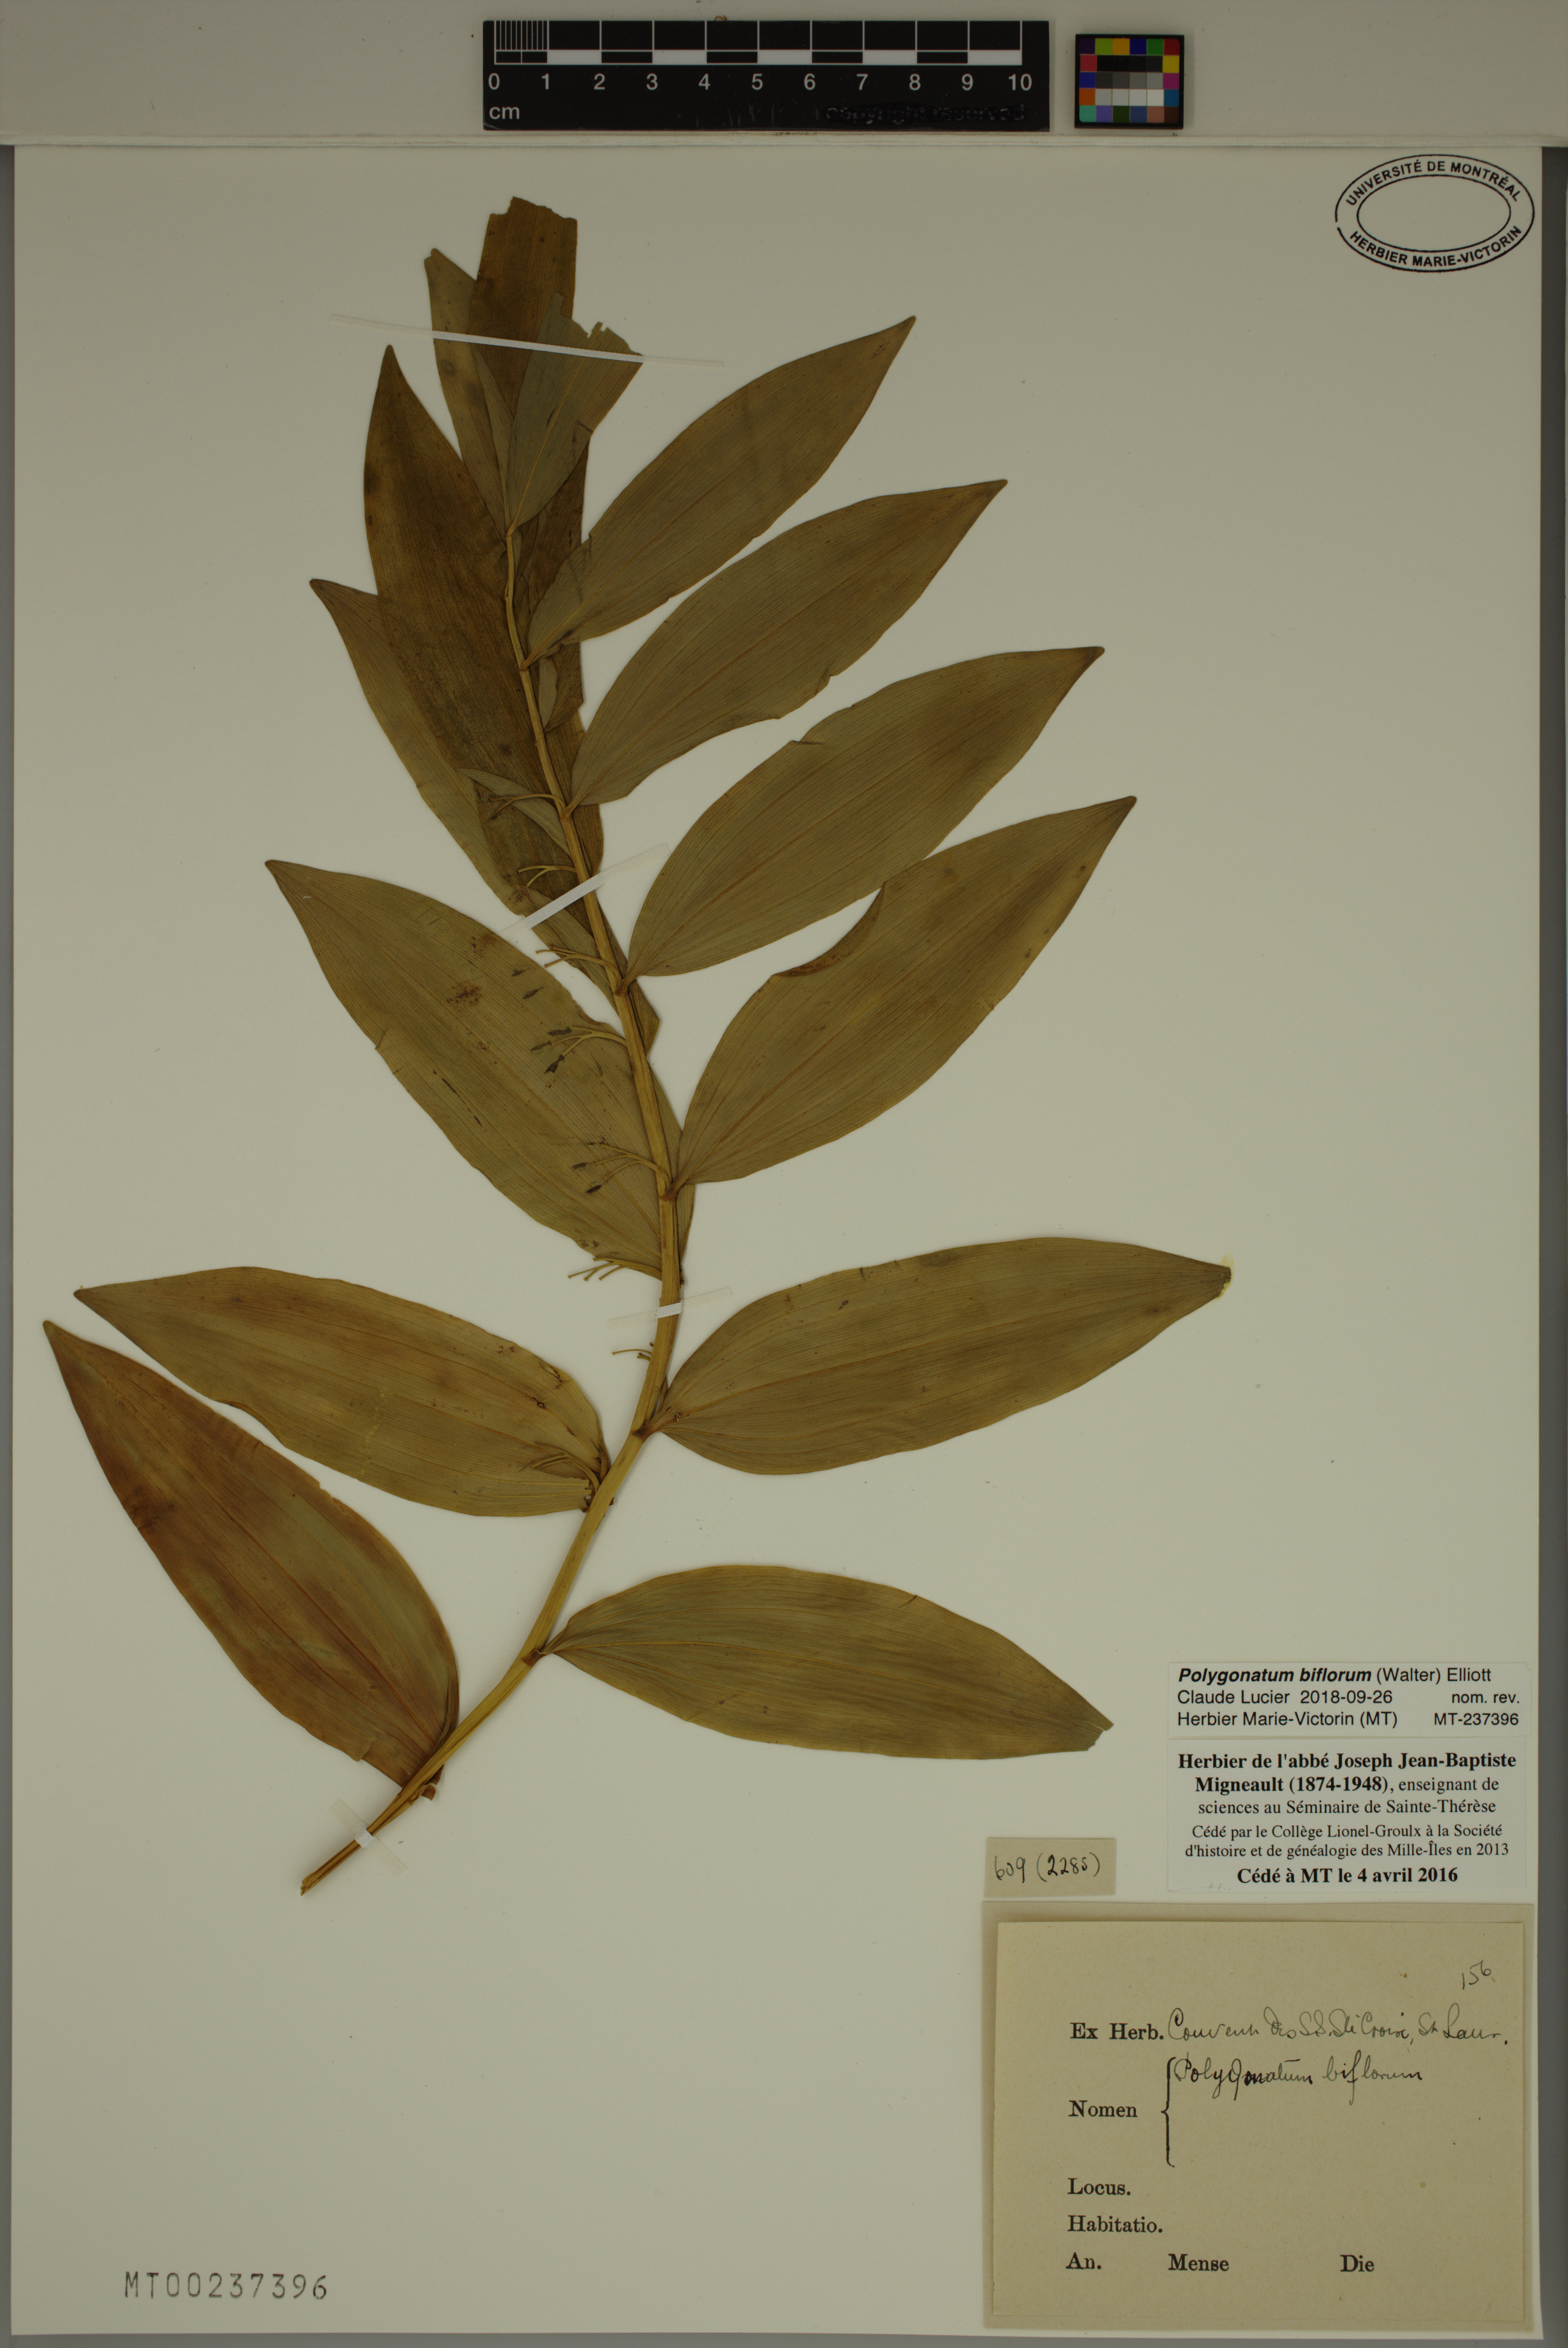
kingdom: Plantae
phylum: Tracheophyta
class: Liliopsida
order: Asparagales
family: Asparagaceae
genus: Polygonatum
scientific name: Polygonatum biflorum
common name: American solomon's-seal
